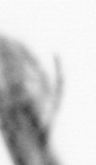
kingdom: Animalia
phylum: Arthropoda
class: Copepoda
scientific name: Copepoda
